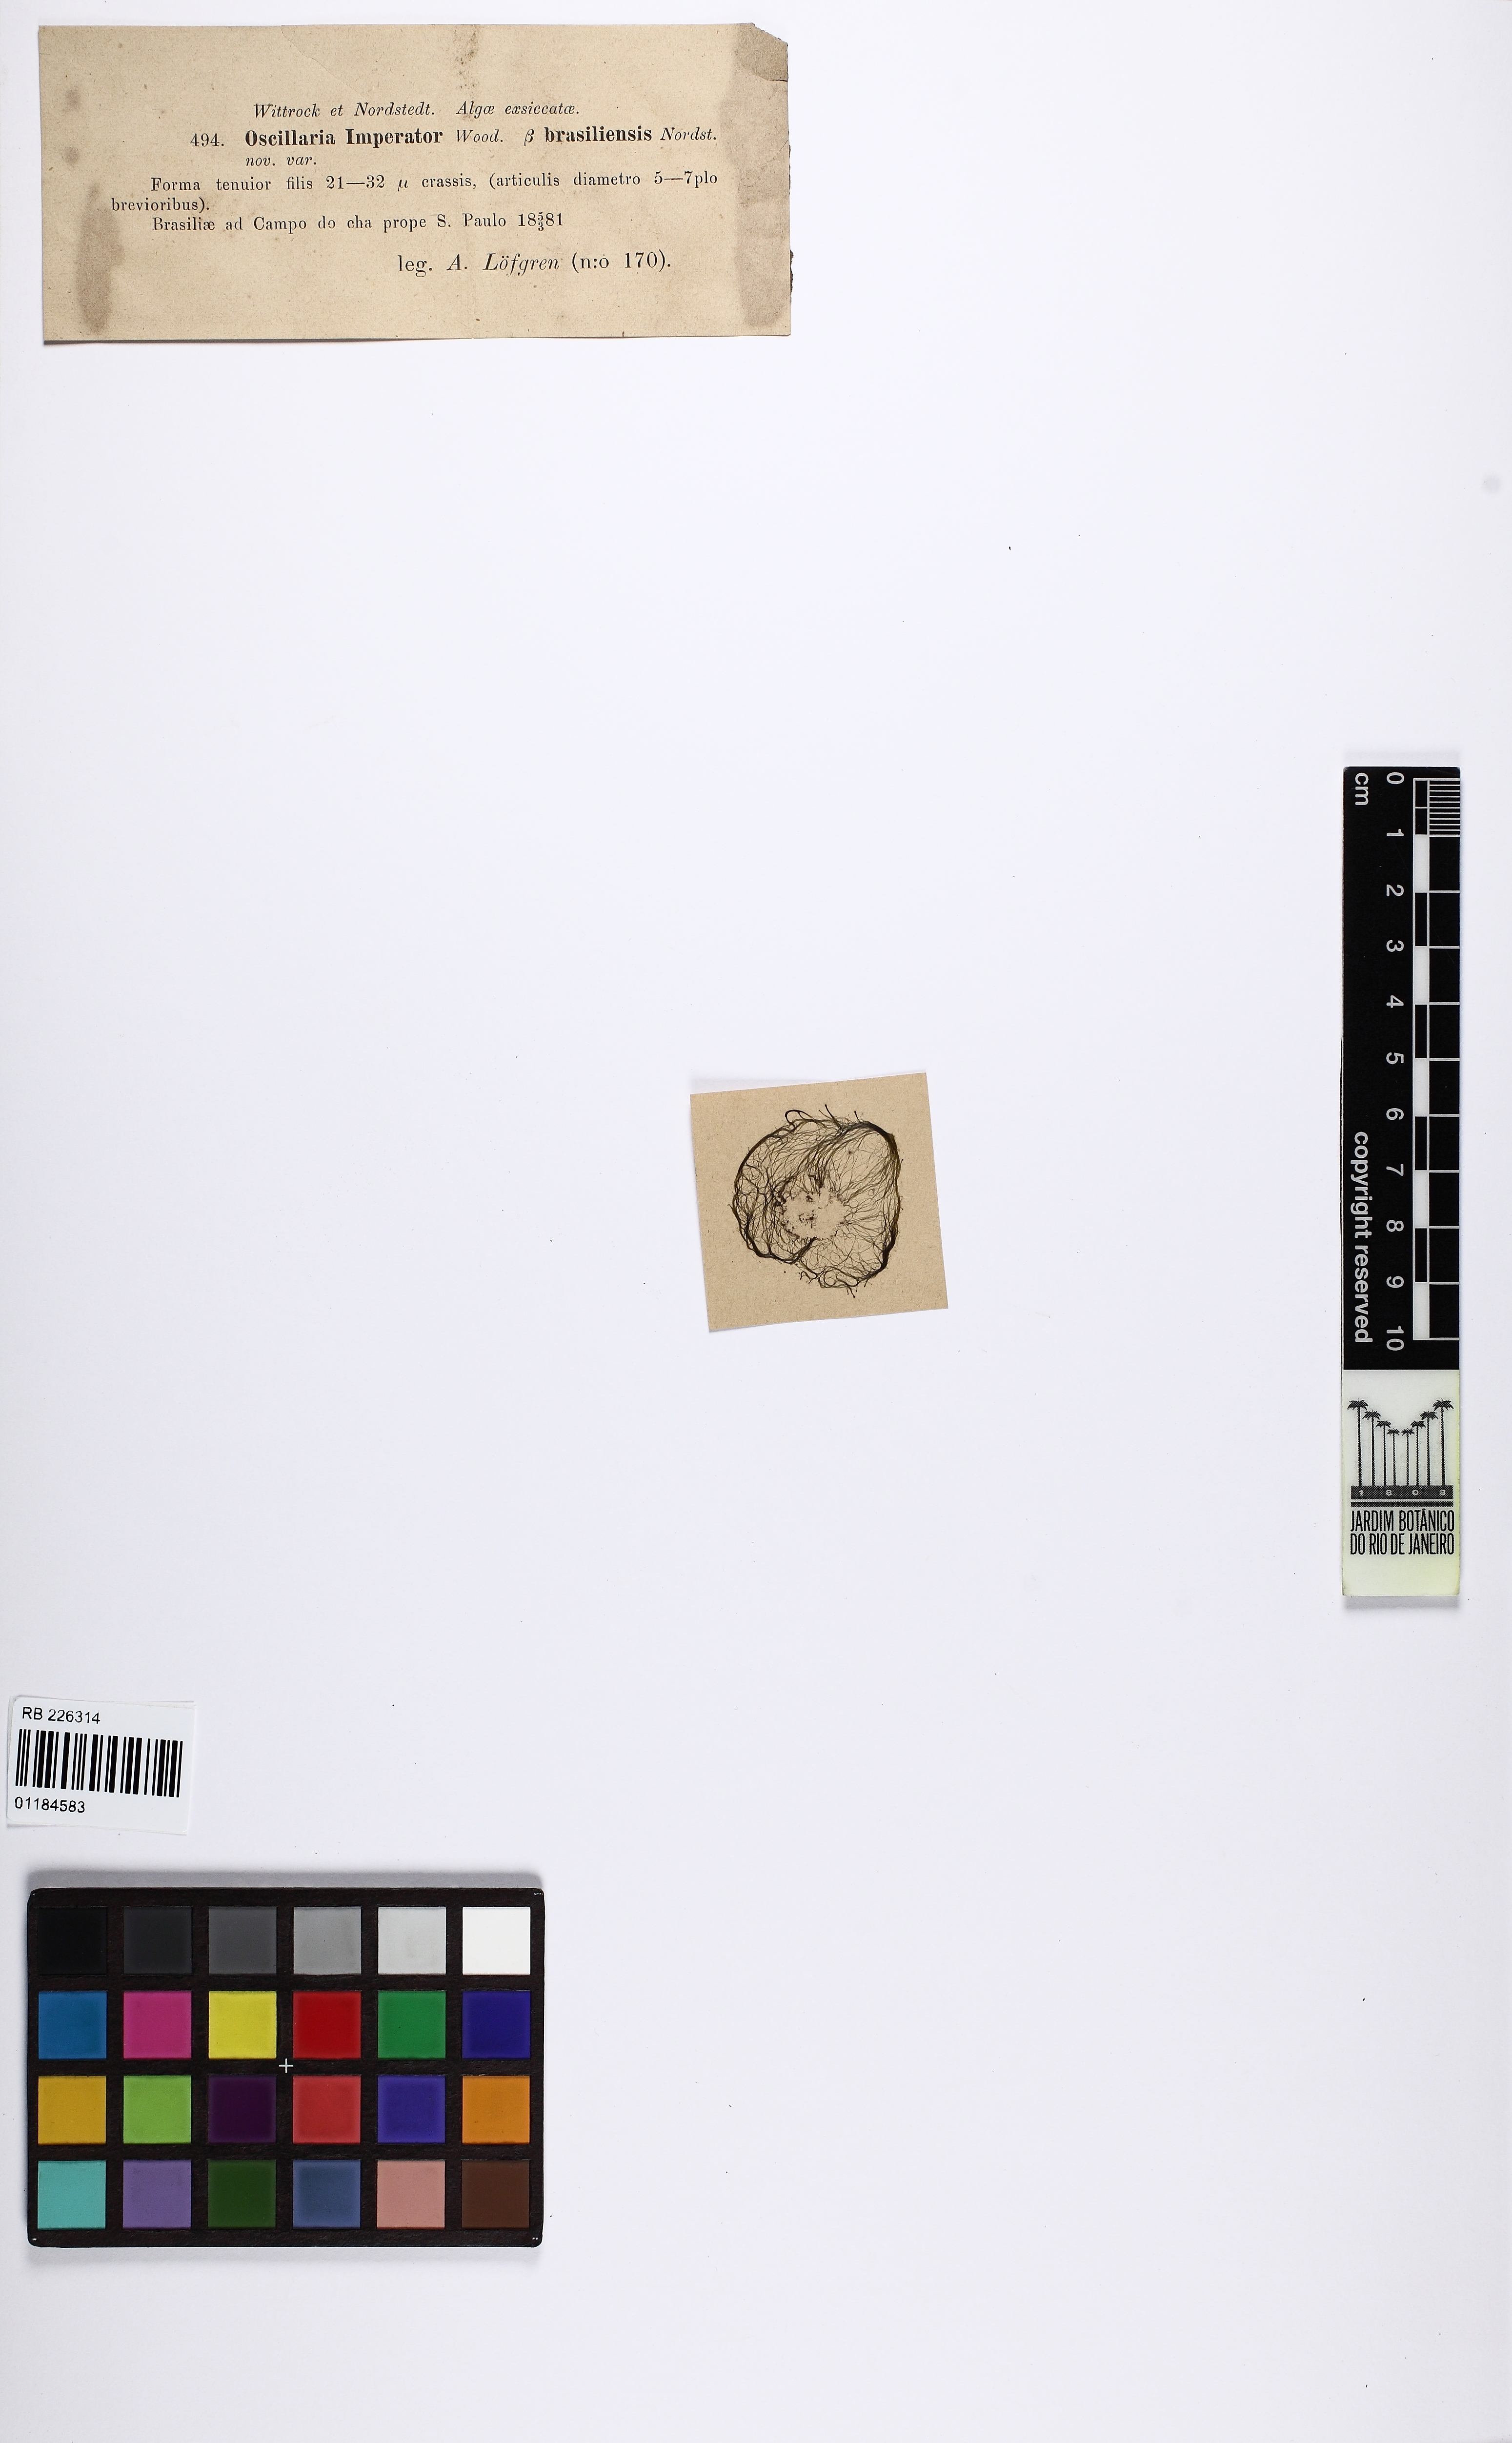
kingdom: Bacteria
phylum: Cyanobacteria
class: Cyanobacteriia
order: Cyanobacteriales
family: Oscillatoriaceae
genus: Oscillatoria
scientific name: Oscillatoria
